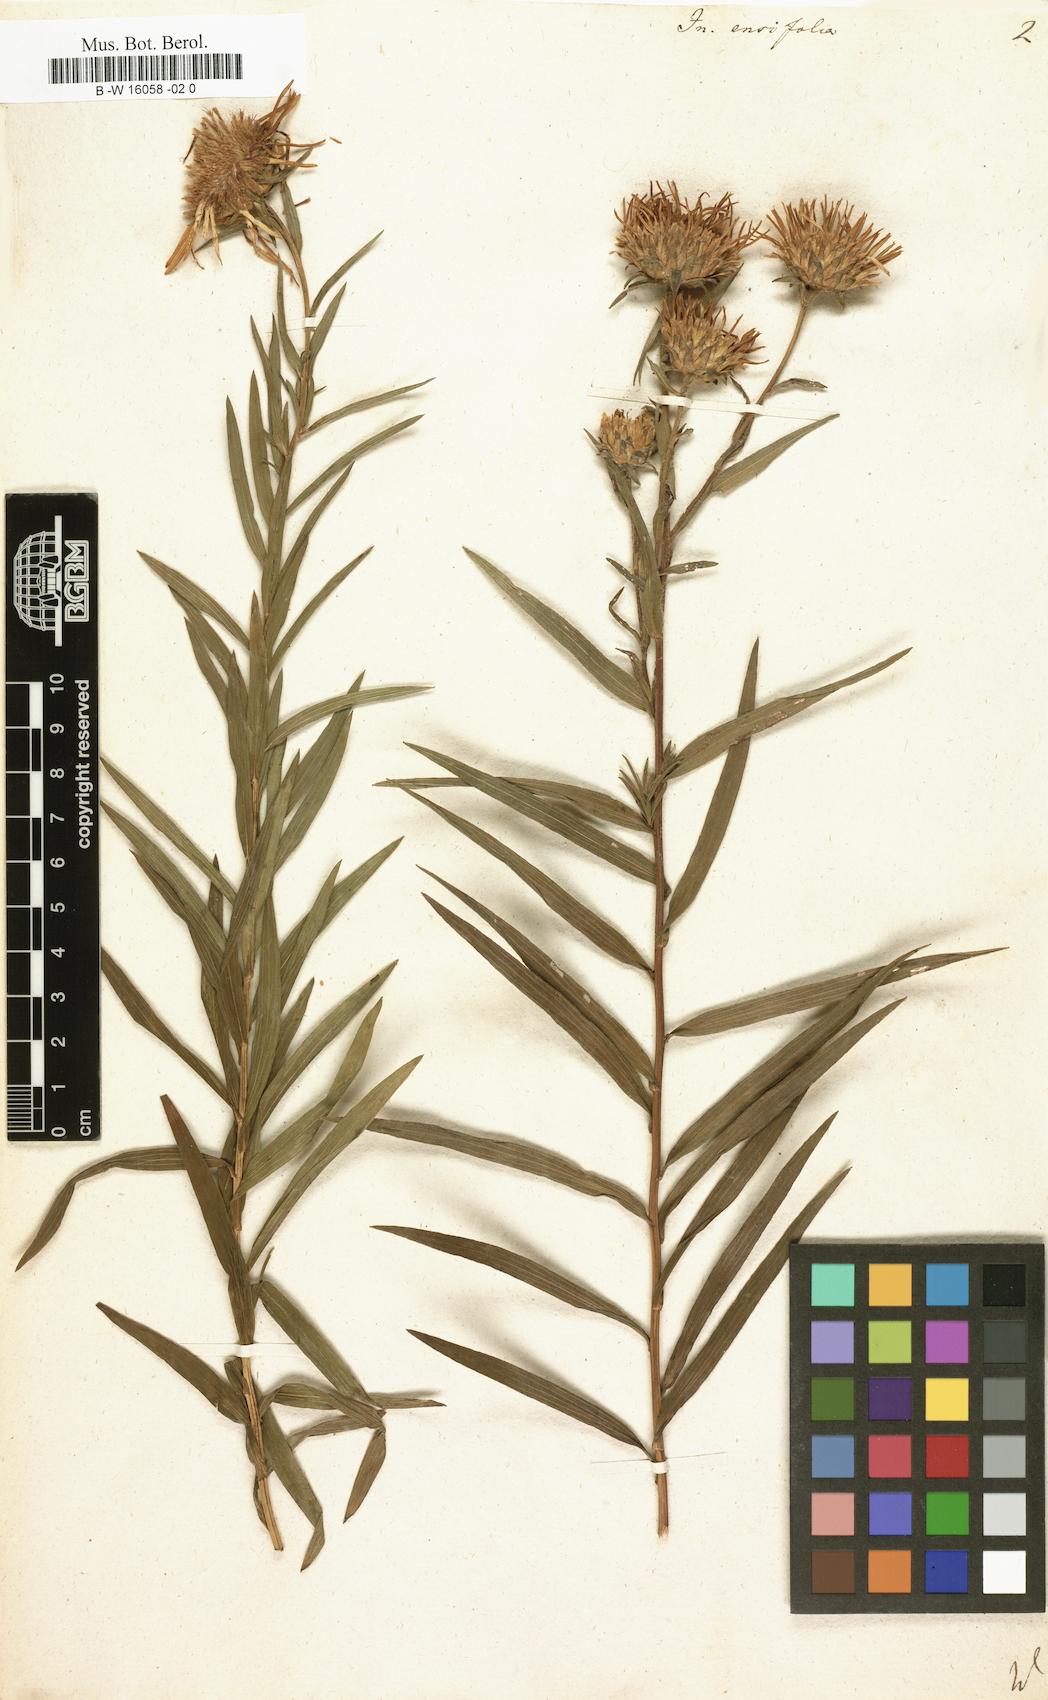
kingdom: Plantae
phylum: Tracheophyta
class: Magnoliopsida
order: Asterales
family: Asteraceae
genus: Pentanema
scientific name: Pentanema ensifolium
